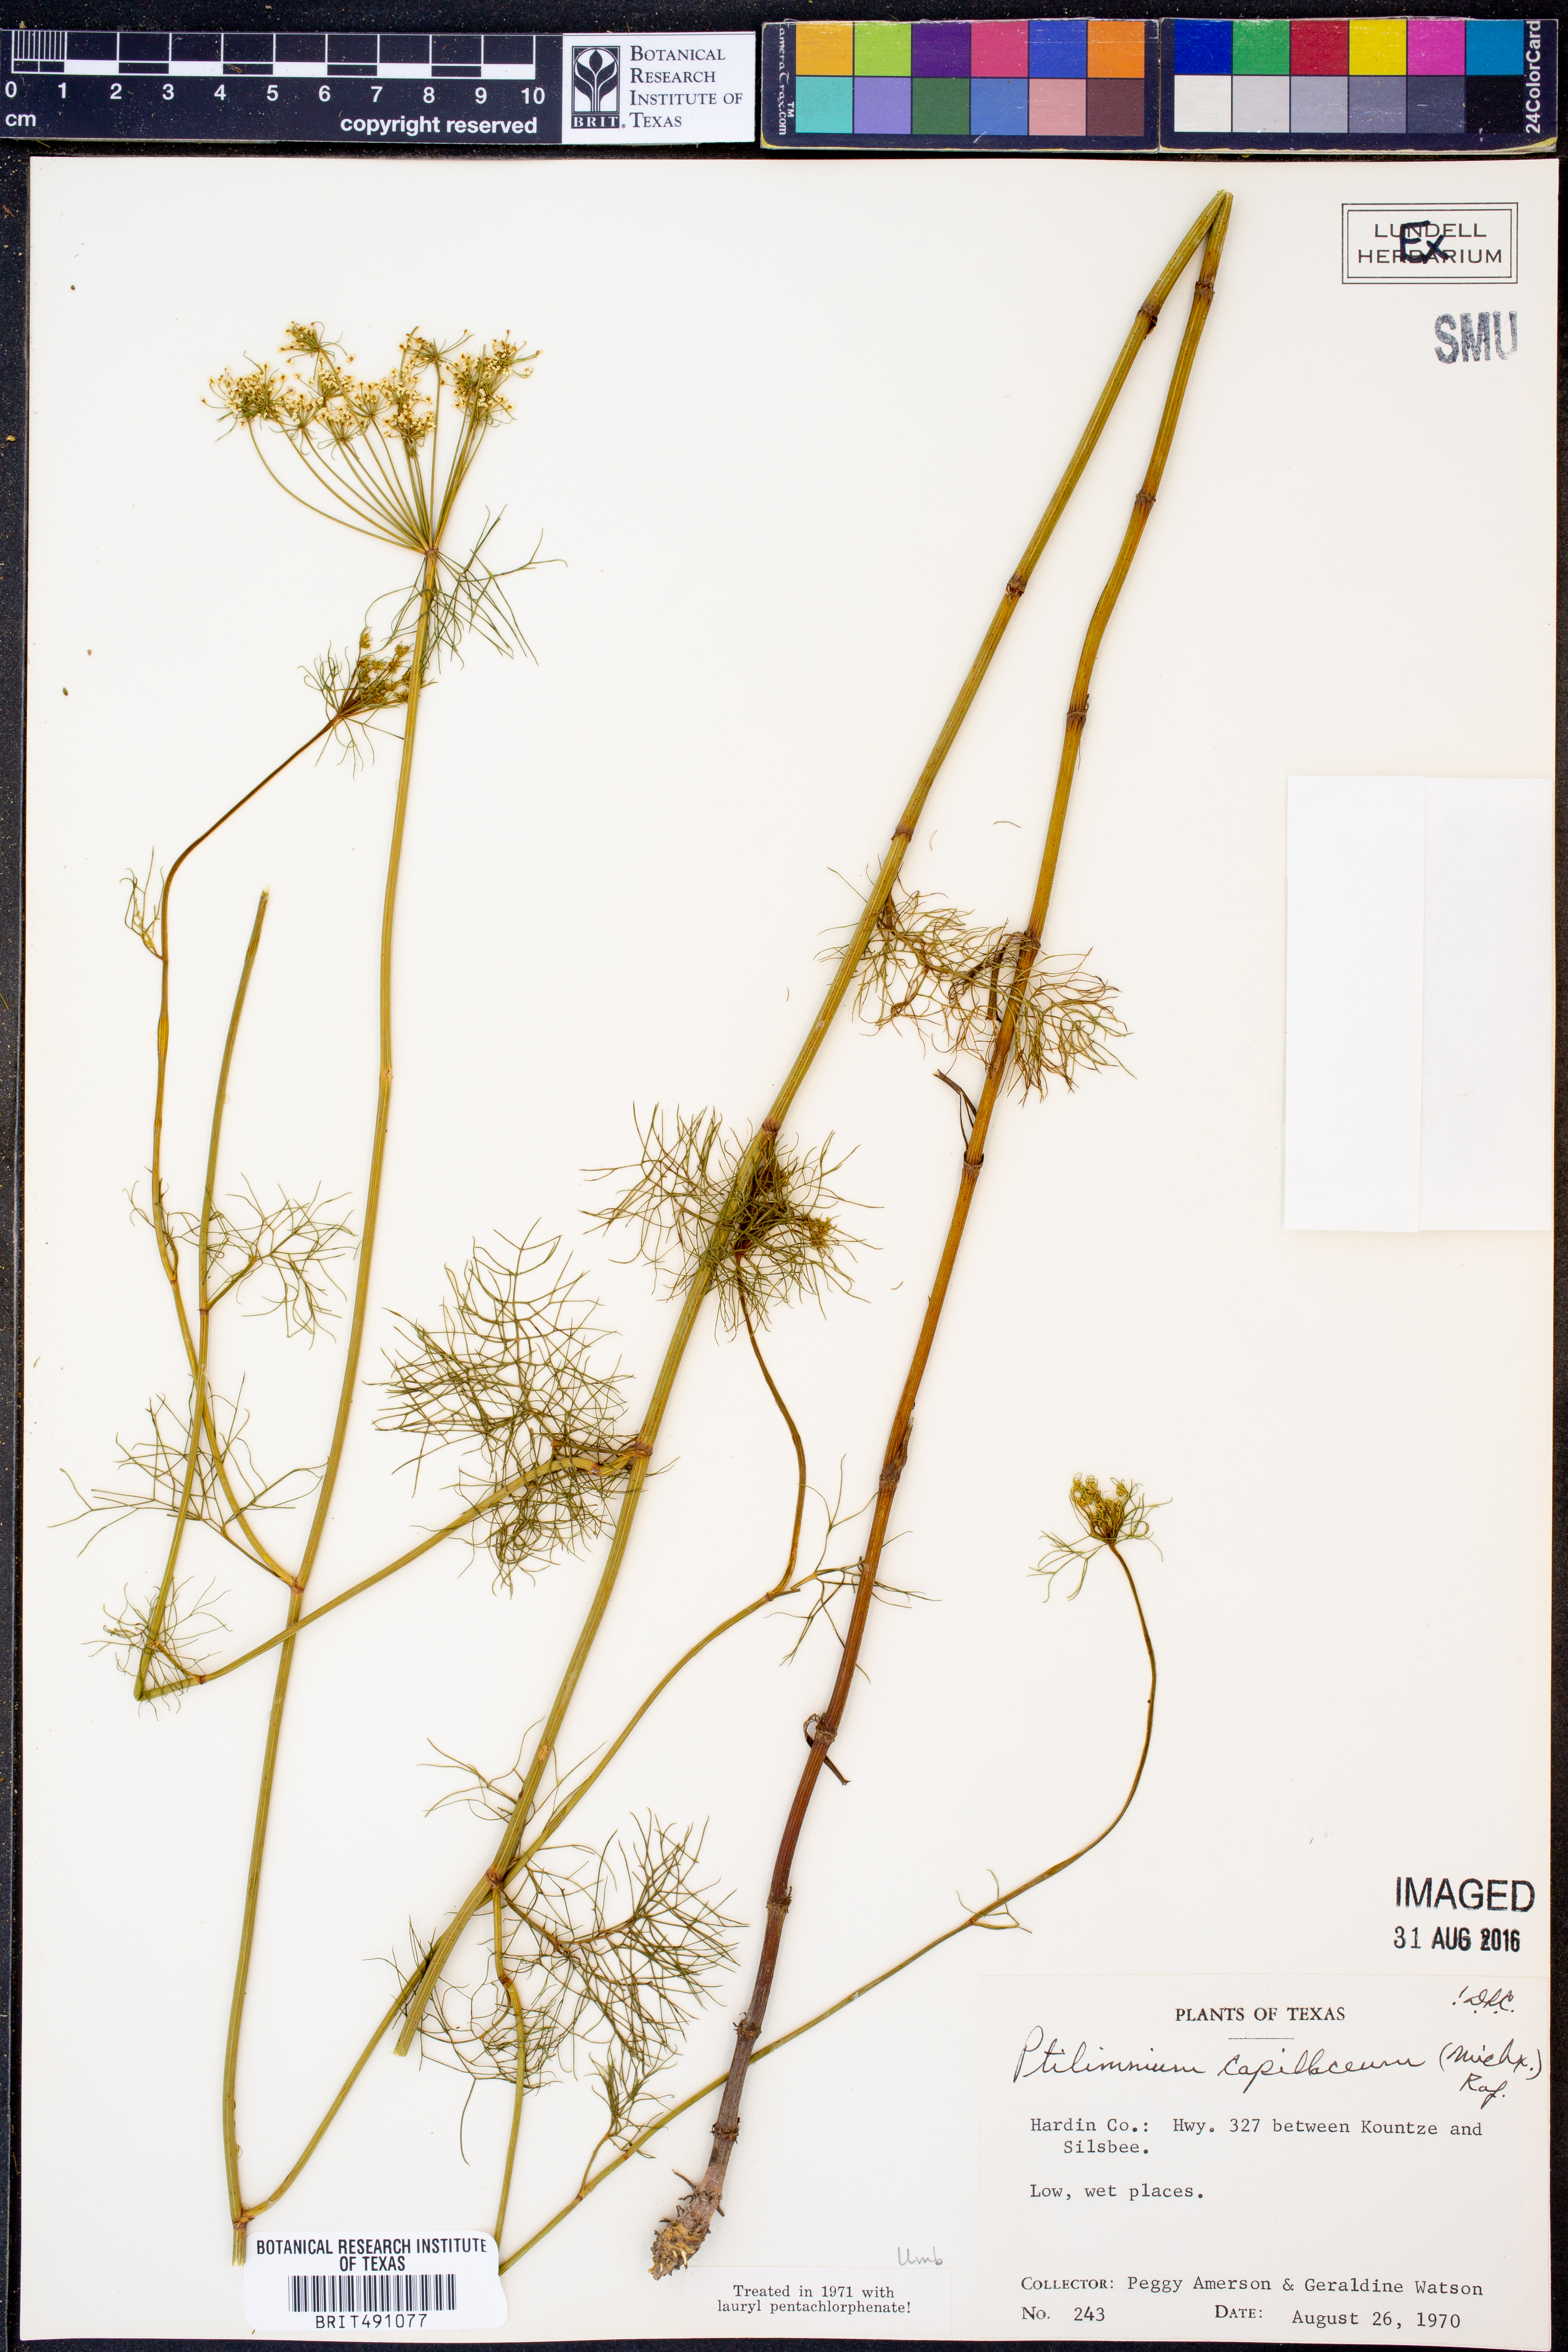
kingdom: Plantae
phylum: Tracheophyta
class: Magnoliopsida
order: Apiales
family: Apiaceae
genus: Ptilimnium
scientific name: Ptilimnium capillaceum
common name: Herbwilliam
